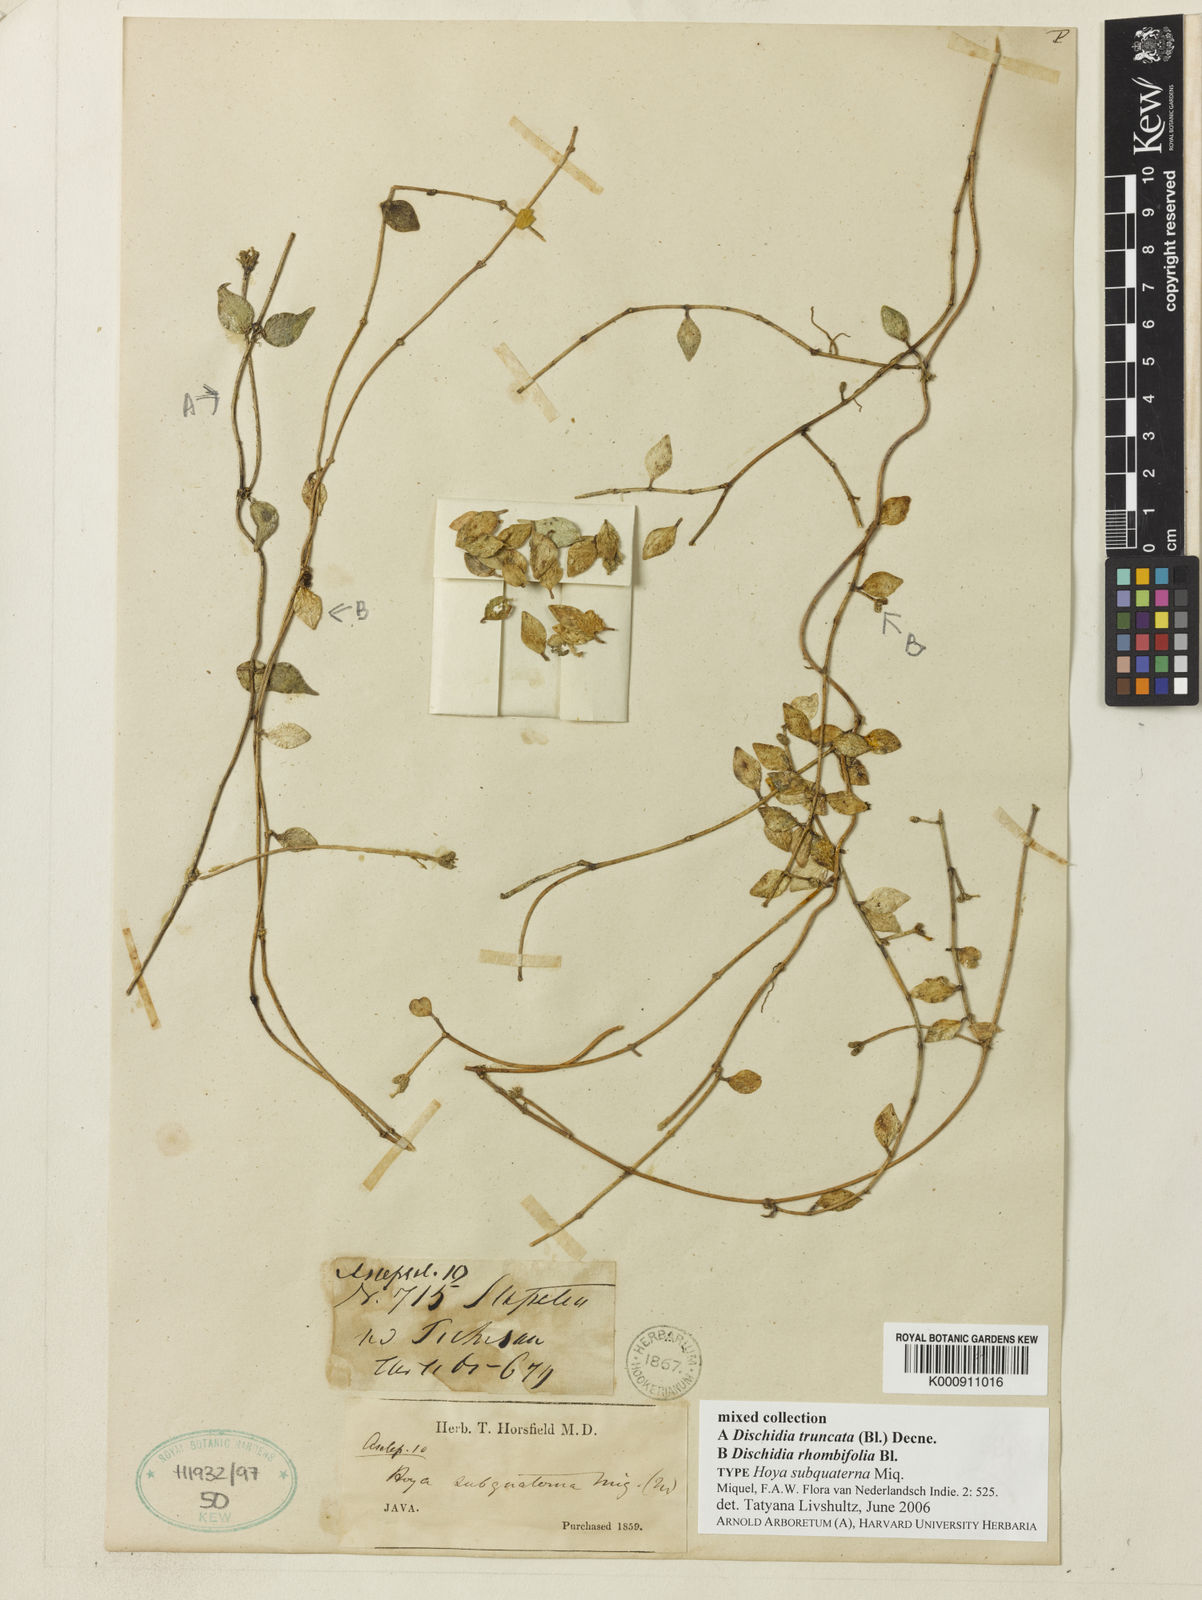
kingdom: Plantae
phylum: Tracheophyta
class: Magnoliopsida
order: Gentianales
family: Apocynaceae
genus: Dischidia
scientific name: Dischidia
